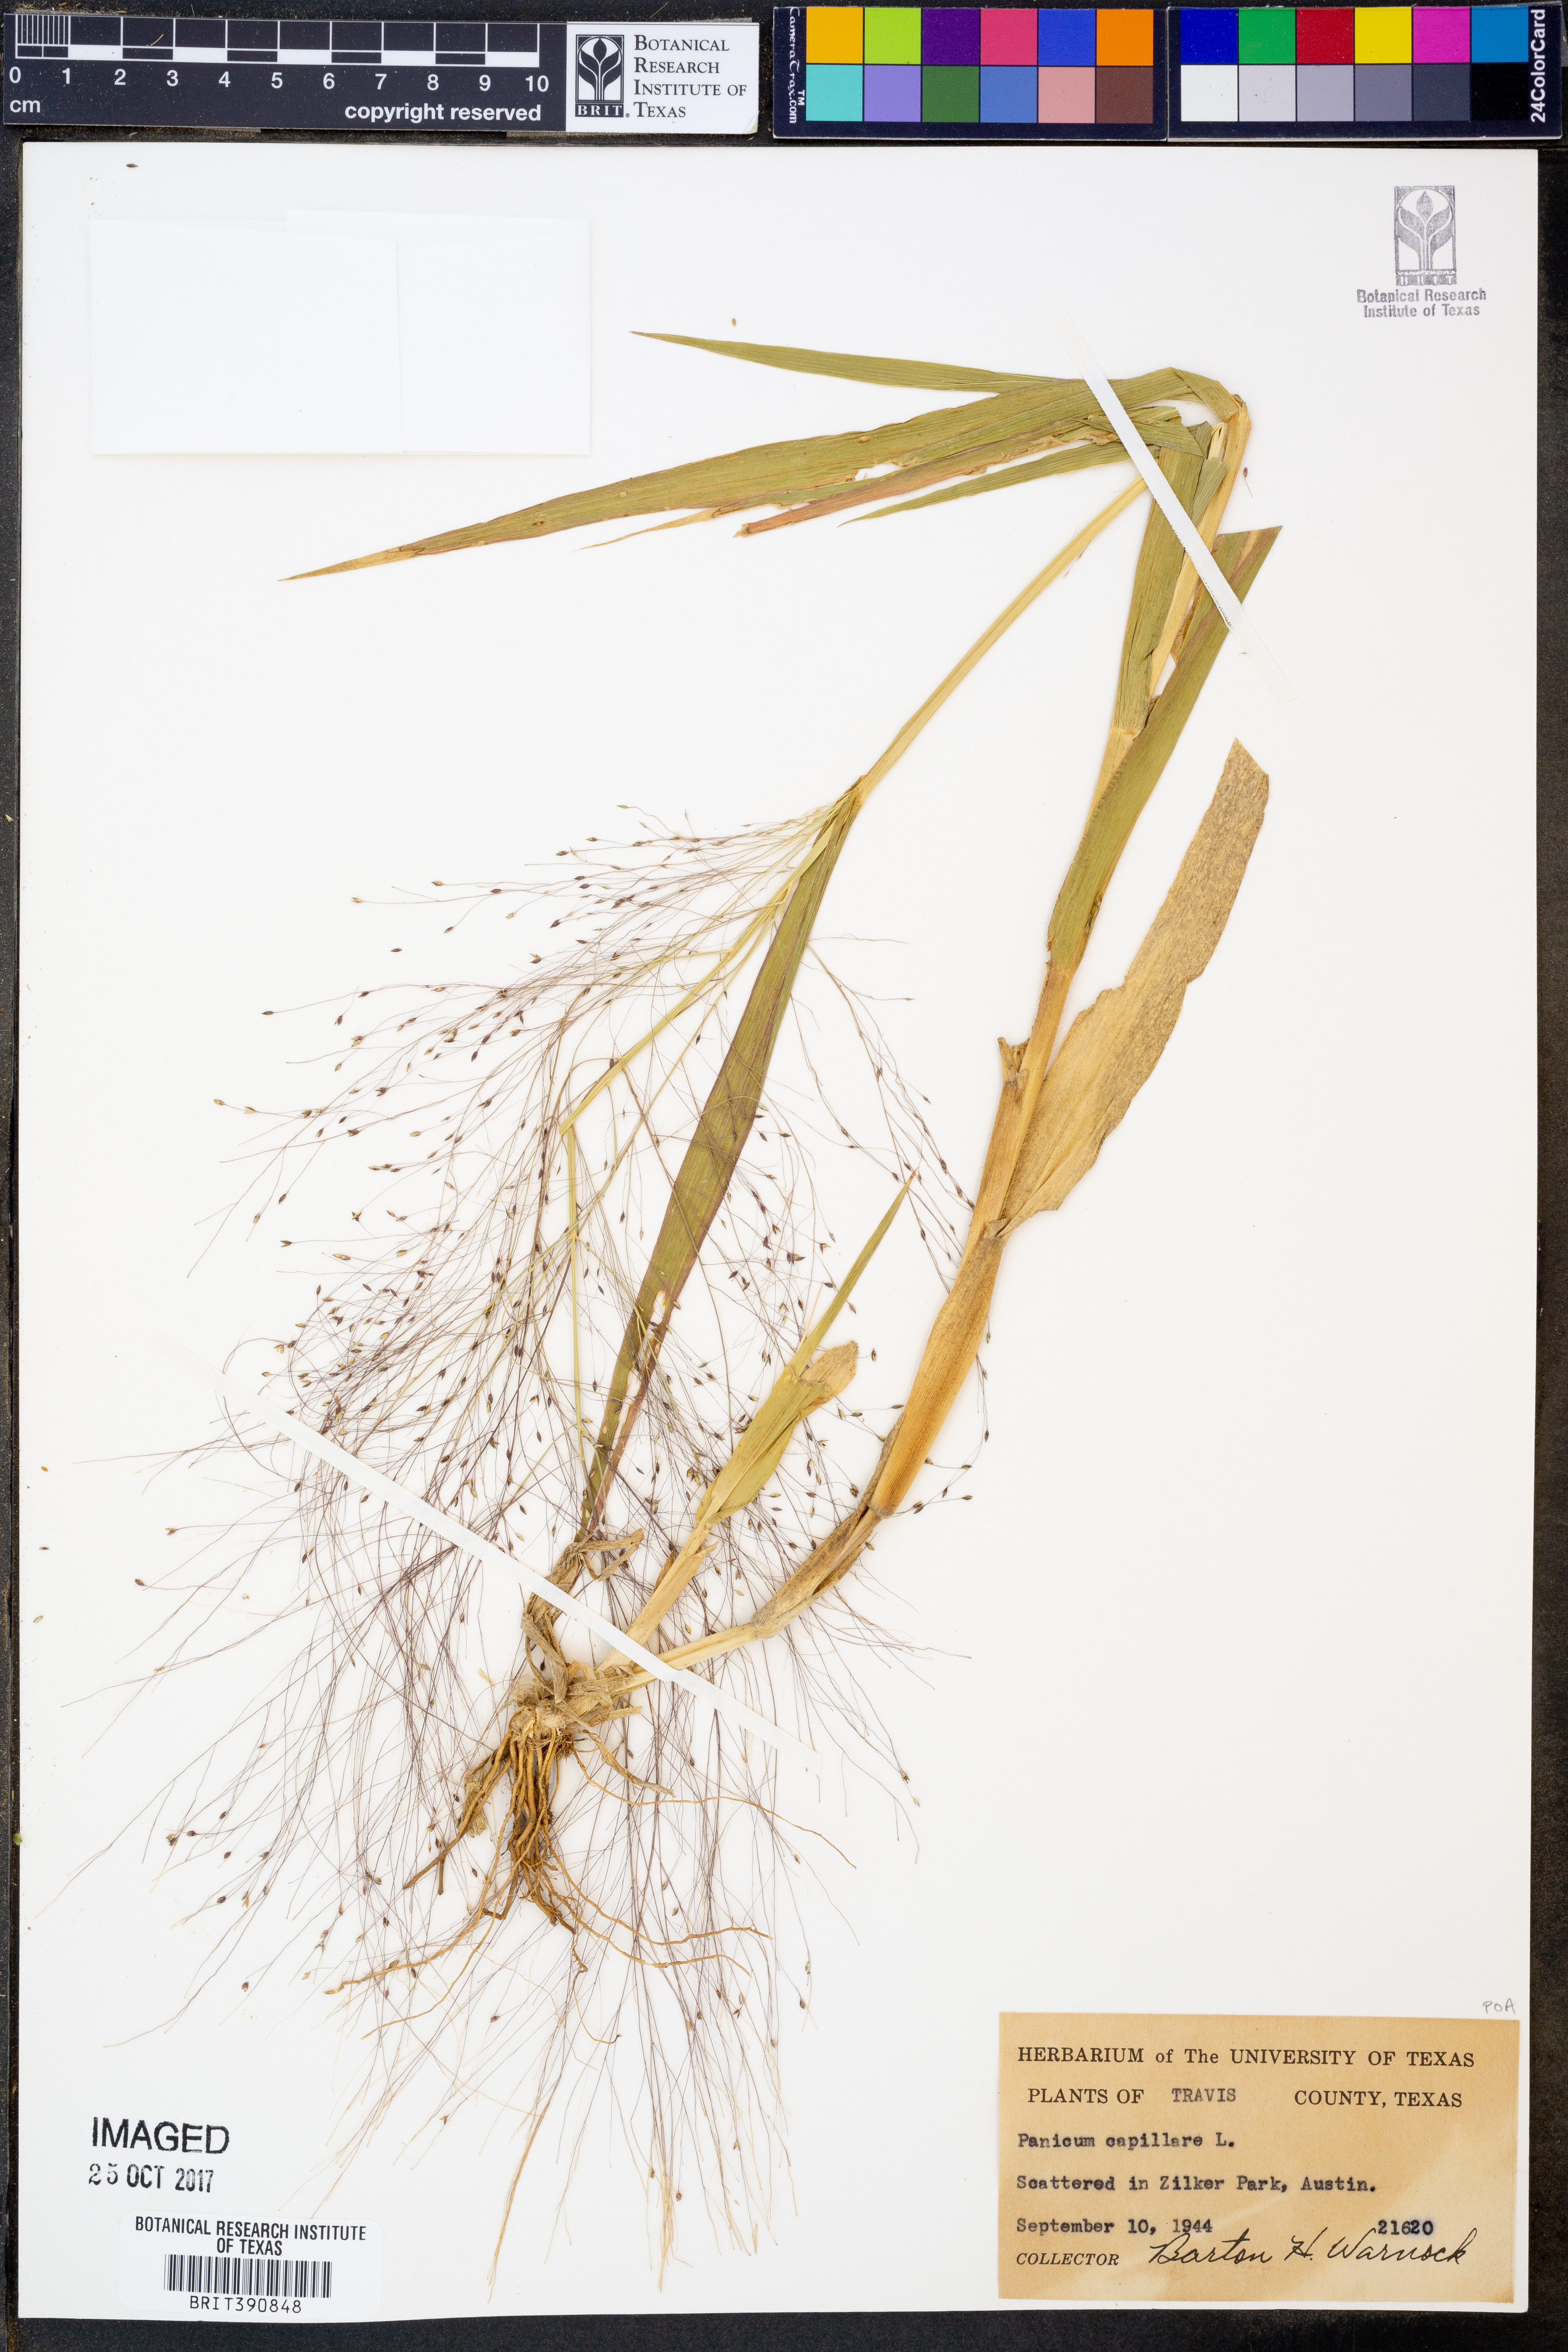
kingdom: Plantae
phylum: Tracheophyta
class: Liliopsida
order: Poales
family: Poaceae
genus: Panicum
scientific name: Panicum capillare
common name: Witch-grass
